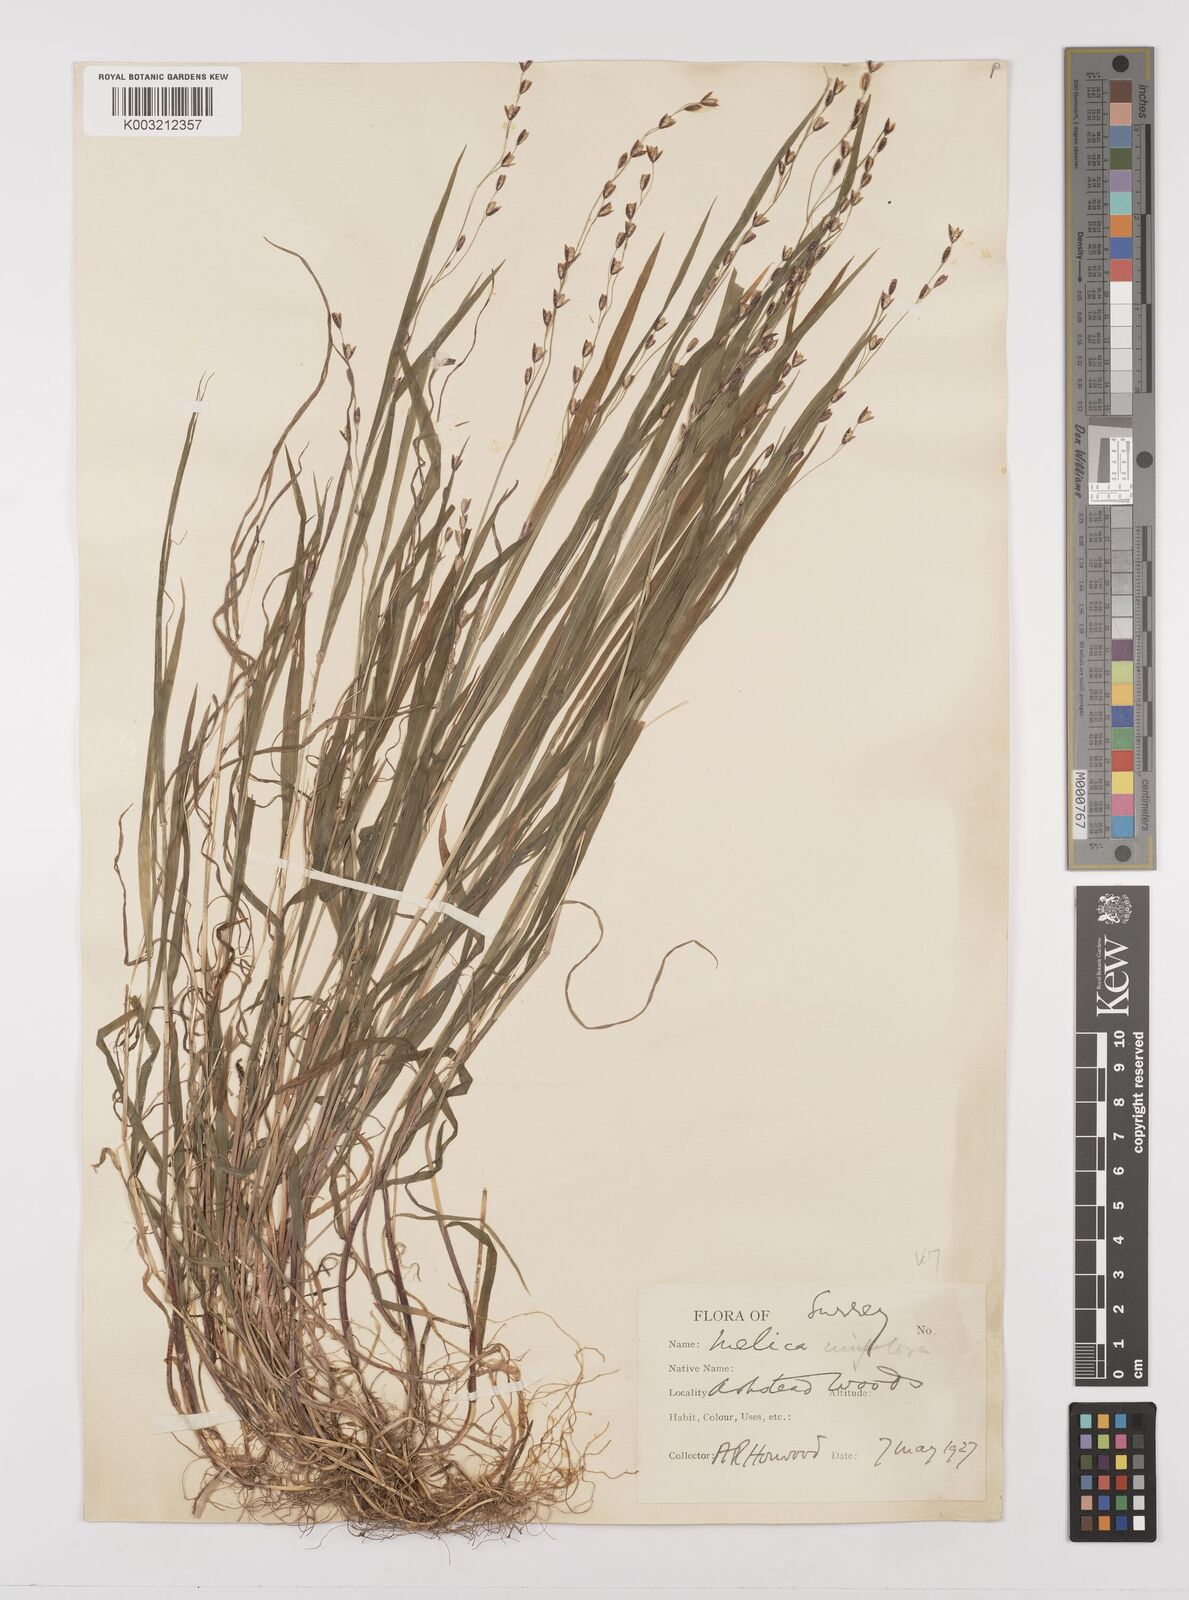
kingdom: Plantae
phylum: Tracheophyta
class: Liliopsida
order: Poales
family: Poaceae
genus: Melica
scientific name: Melica uniflora
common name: Wood melick
